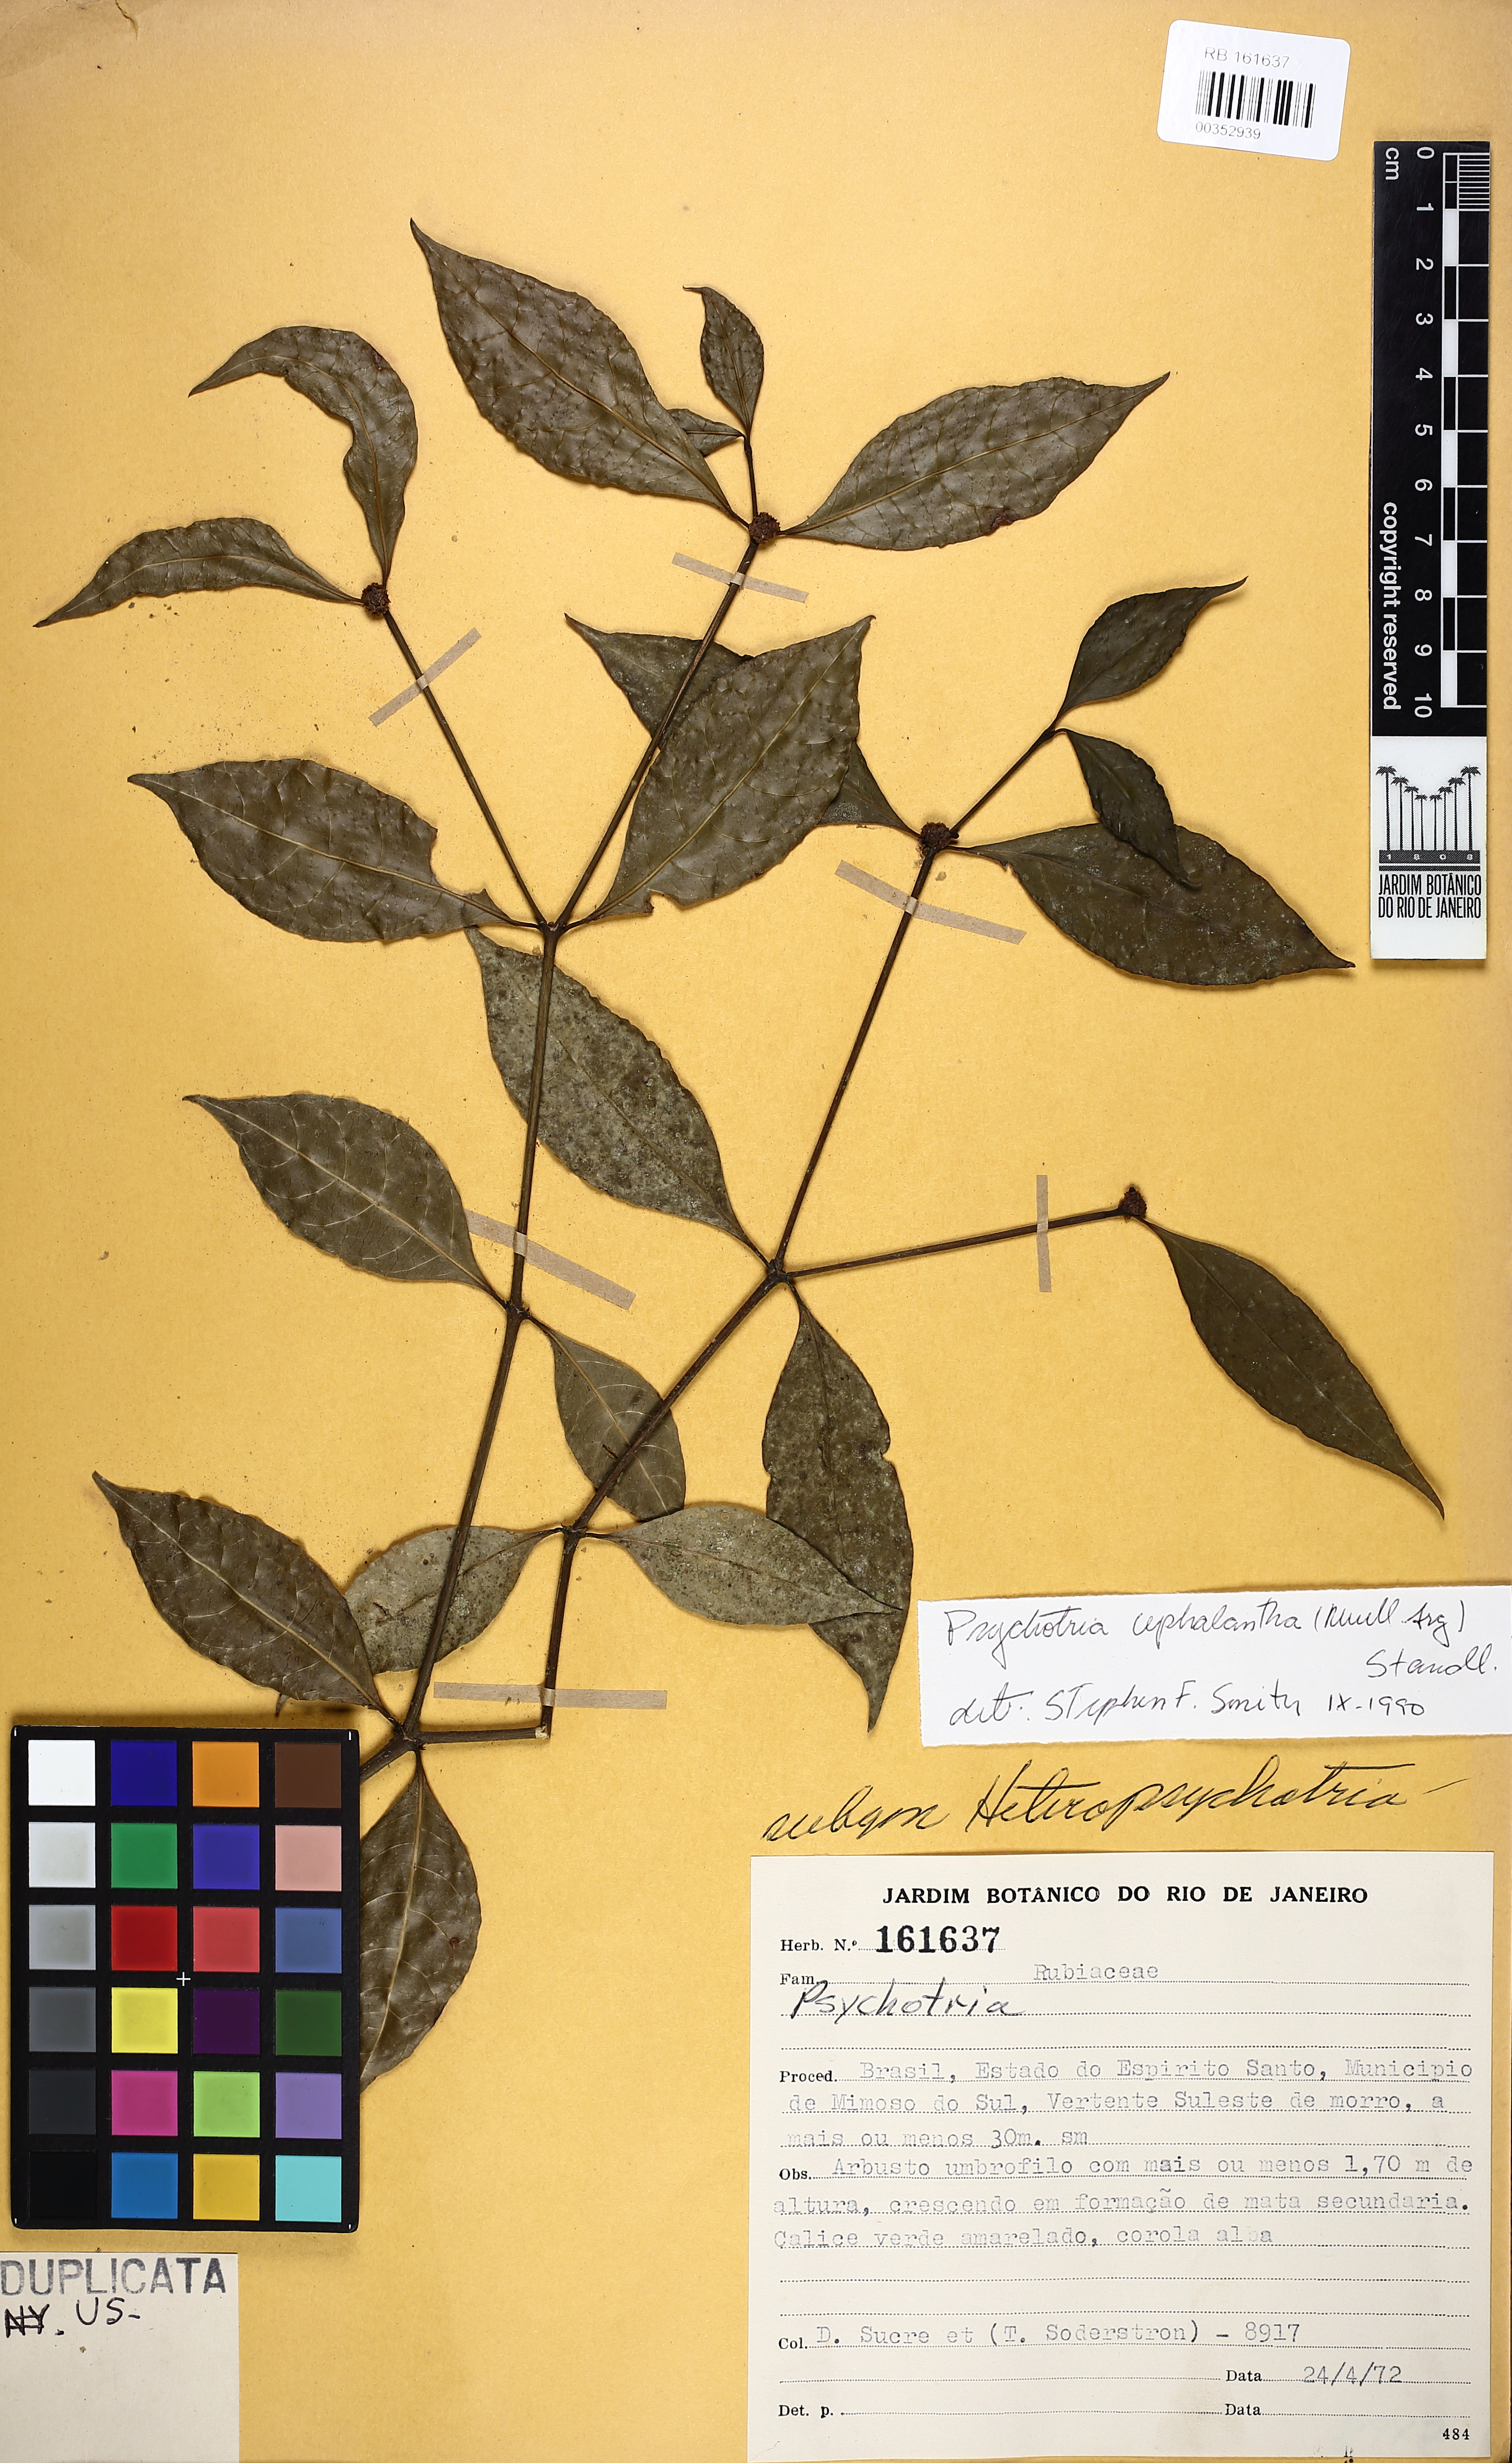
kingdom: Plantae
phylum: Tracheophyta
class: Magnoliopsida
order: Gentianales
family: Rubiaceae
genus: Eumachia
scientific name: Eumachia cephalantha
